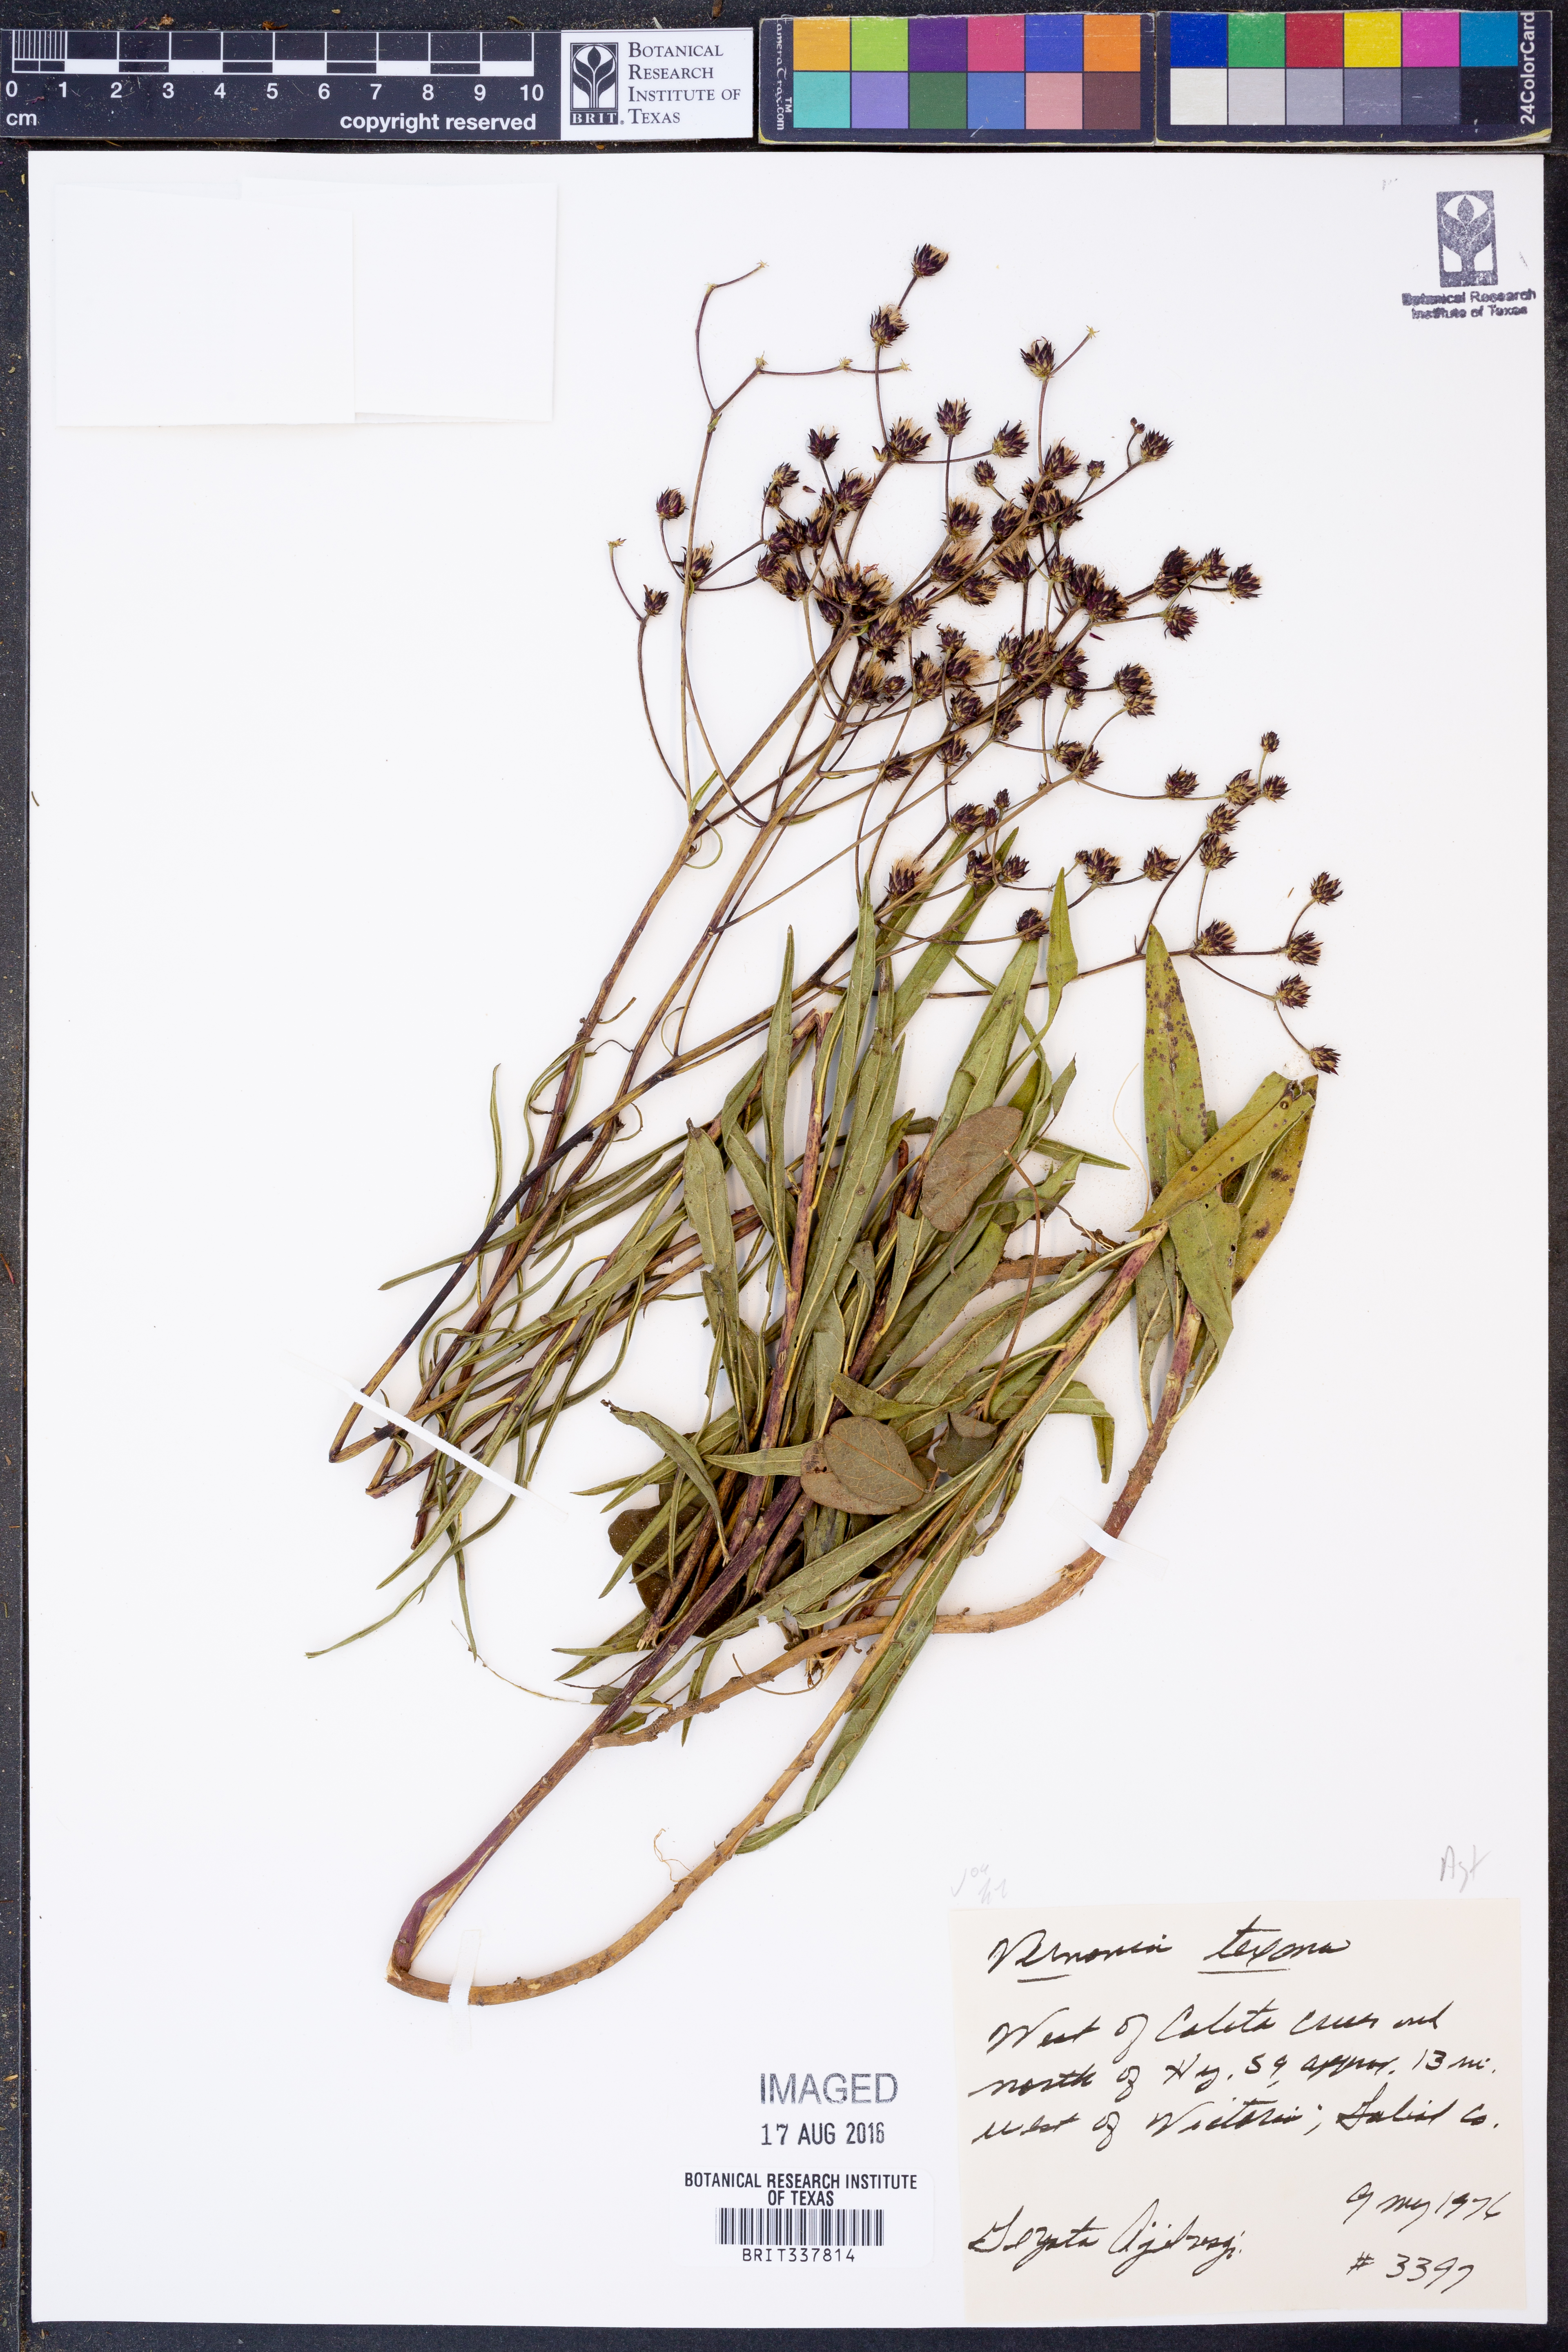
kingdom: Plantae
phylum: Tracheophyta
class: Magnoliopsida
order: Asterales
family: Asteraceae
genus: Vernonia
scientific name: Vernonia texana
